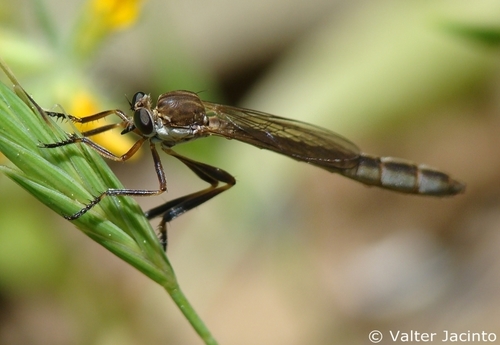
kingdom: Animalia
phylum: Arthropoda
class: Insecta
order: Diptera
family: Asilidae
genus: Leptogaster
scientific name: Leptogaster
